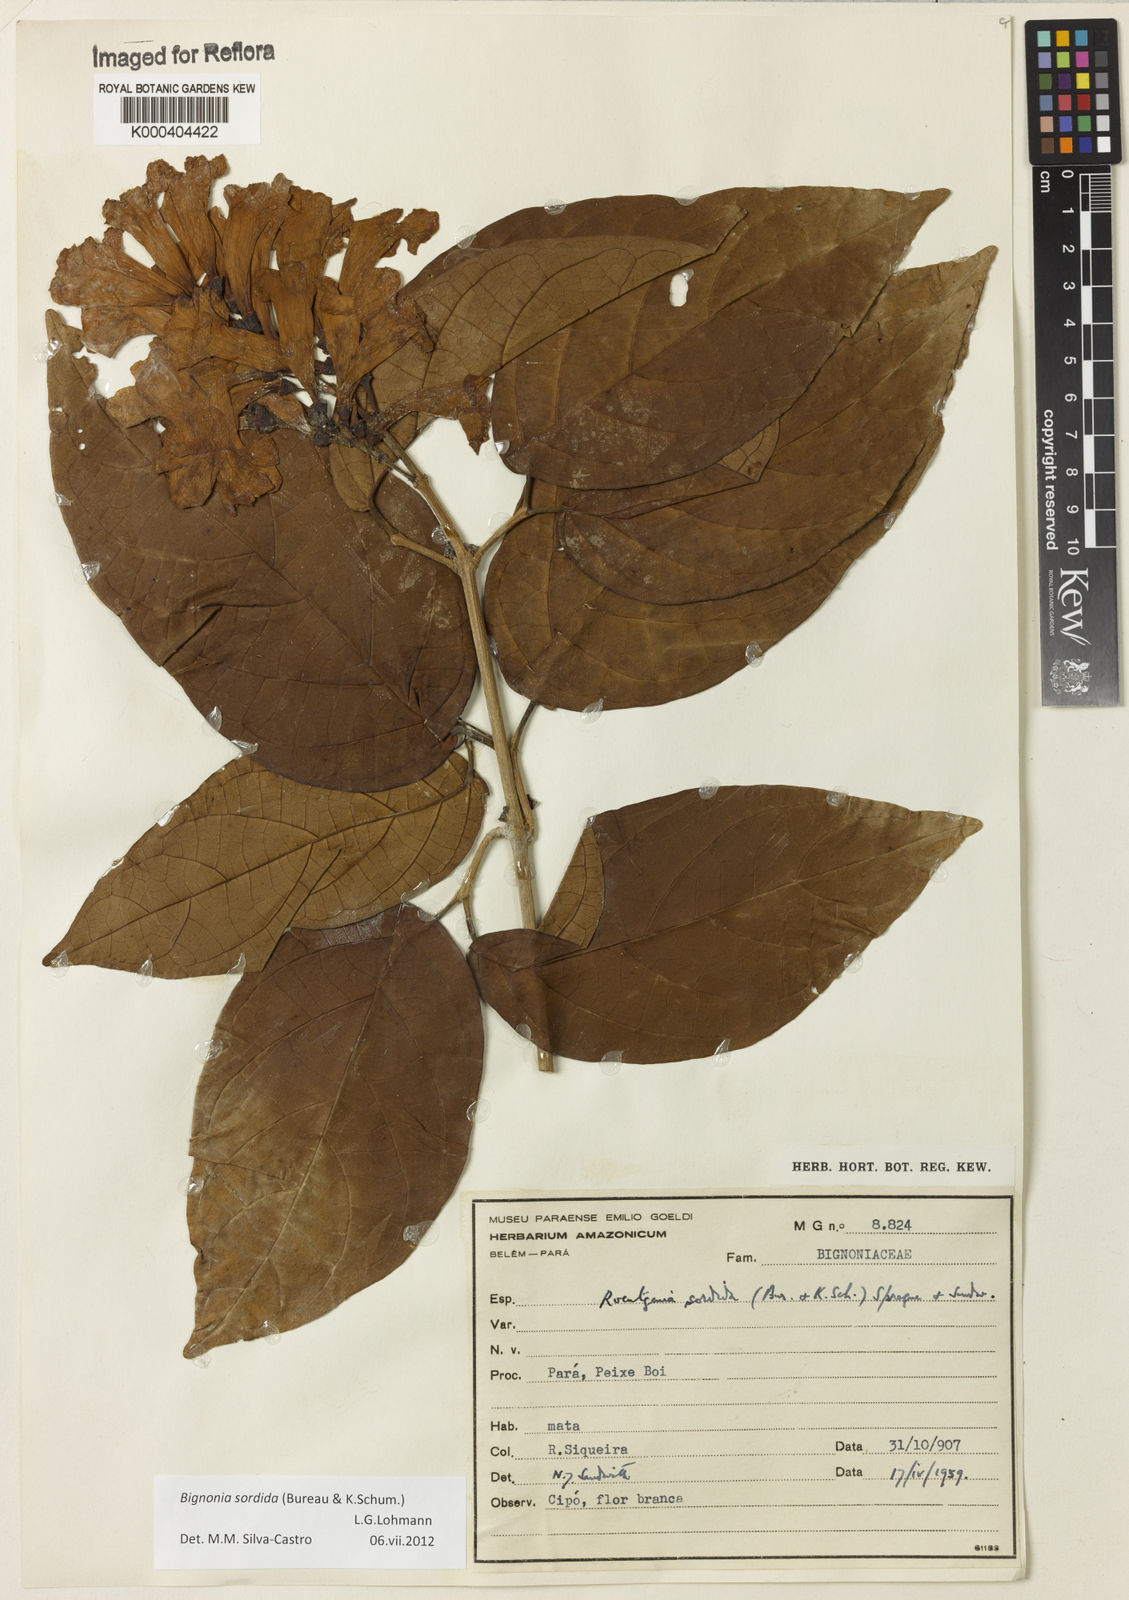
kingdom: Plantae
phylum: Tracheophyta
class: Magnoliopsida
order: Lamiales
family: Bignoniaceae
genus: Bignonia
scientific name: Bignonia sordida
